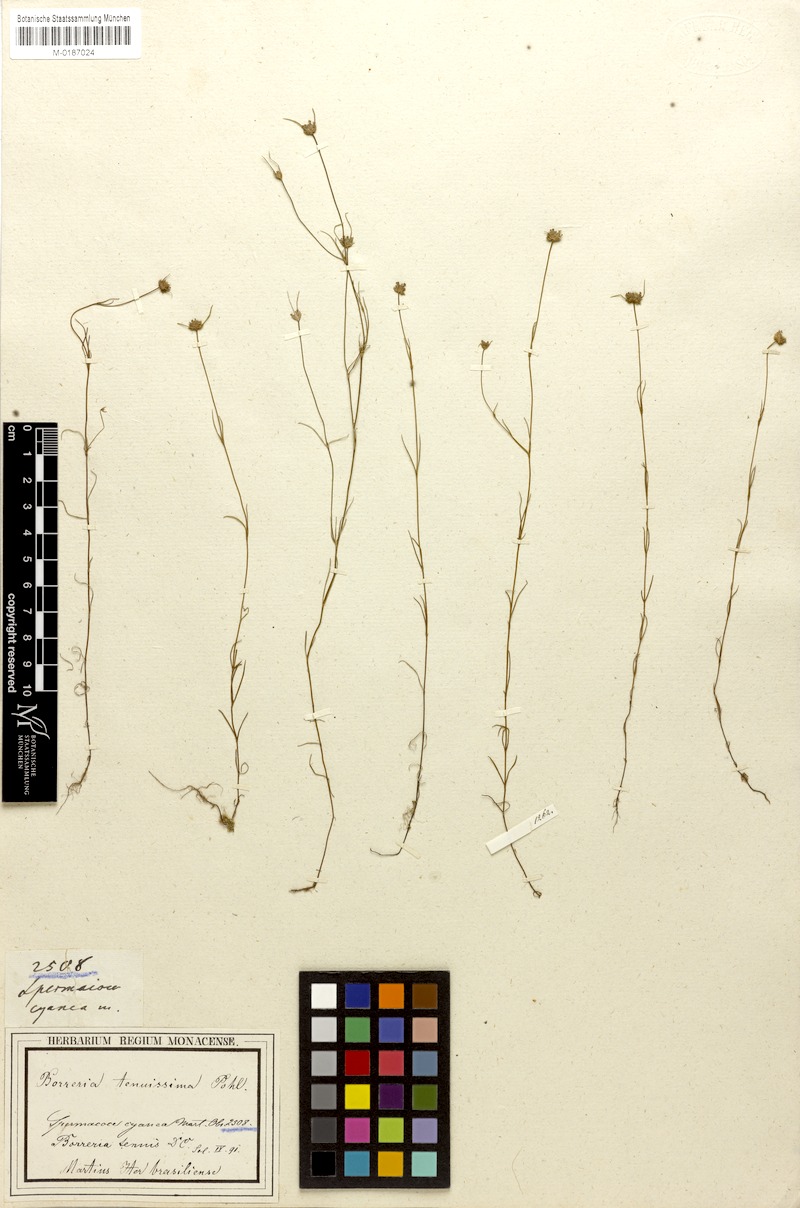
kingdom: Plantae
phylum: Tracheophyta
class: Magnoliopsida
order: Gentianales
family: Rubiaceae
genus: Spermacoce
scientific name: Spermacoce neotenuis
